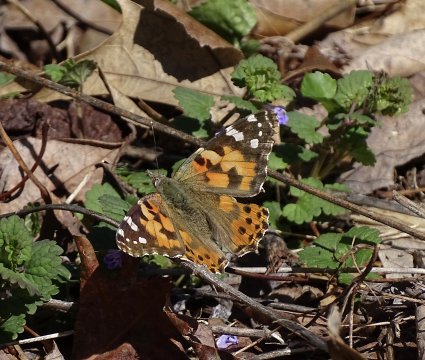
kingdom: Animalia
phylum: Arthropoda
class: Insecta
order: Lepidoptera
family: Nymphalidae
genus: Vanessa
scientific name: Vanessa cardui
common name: Painted Lady
